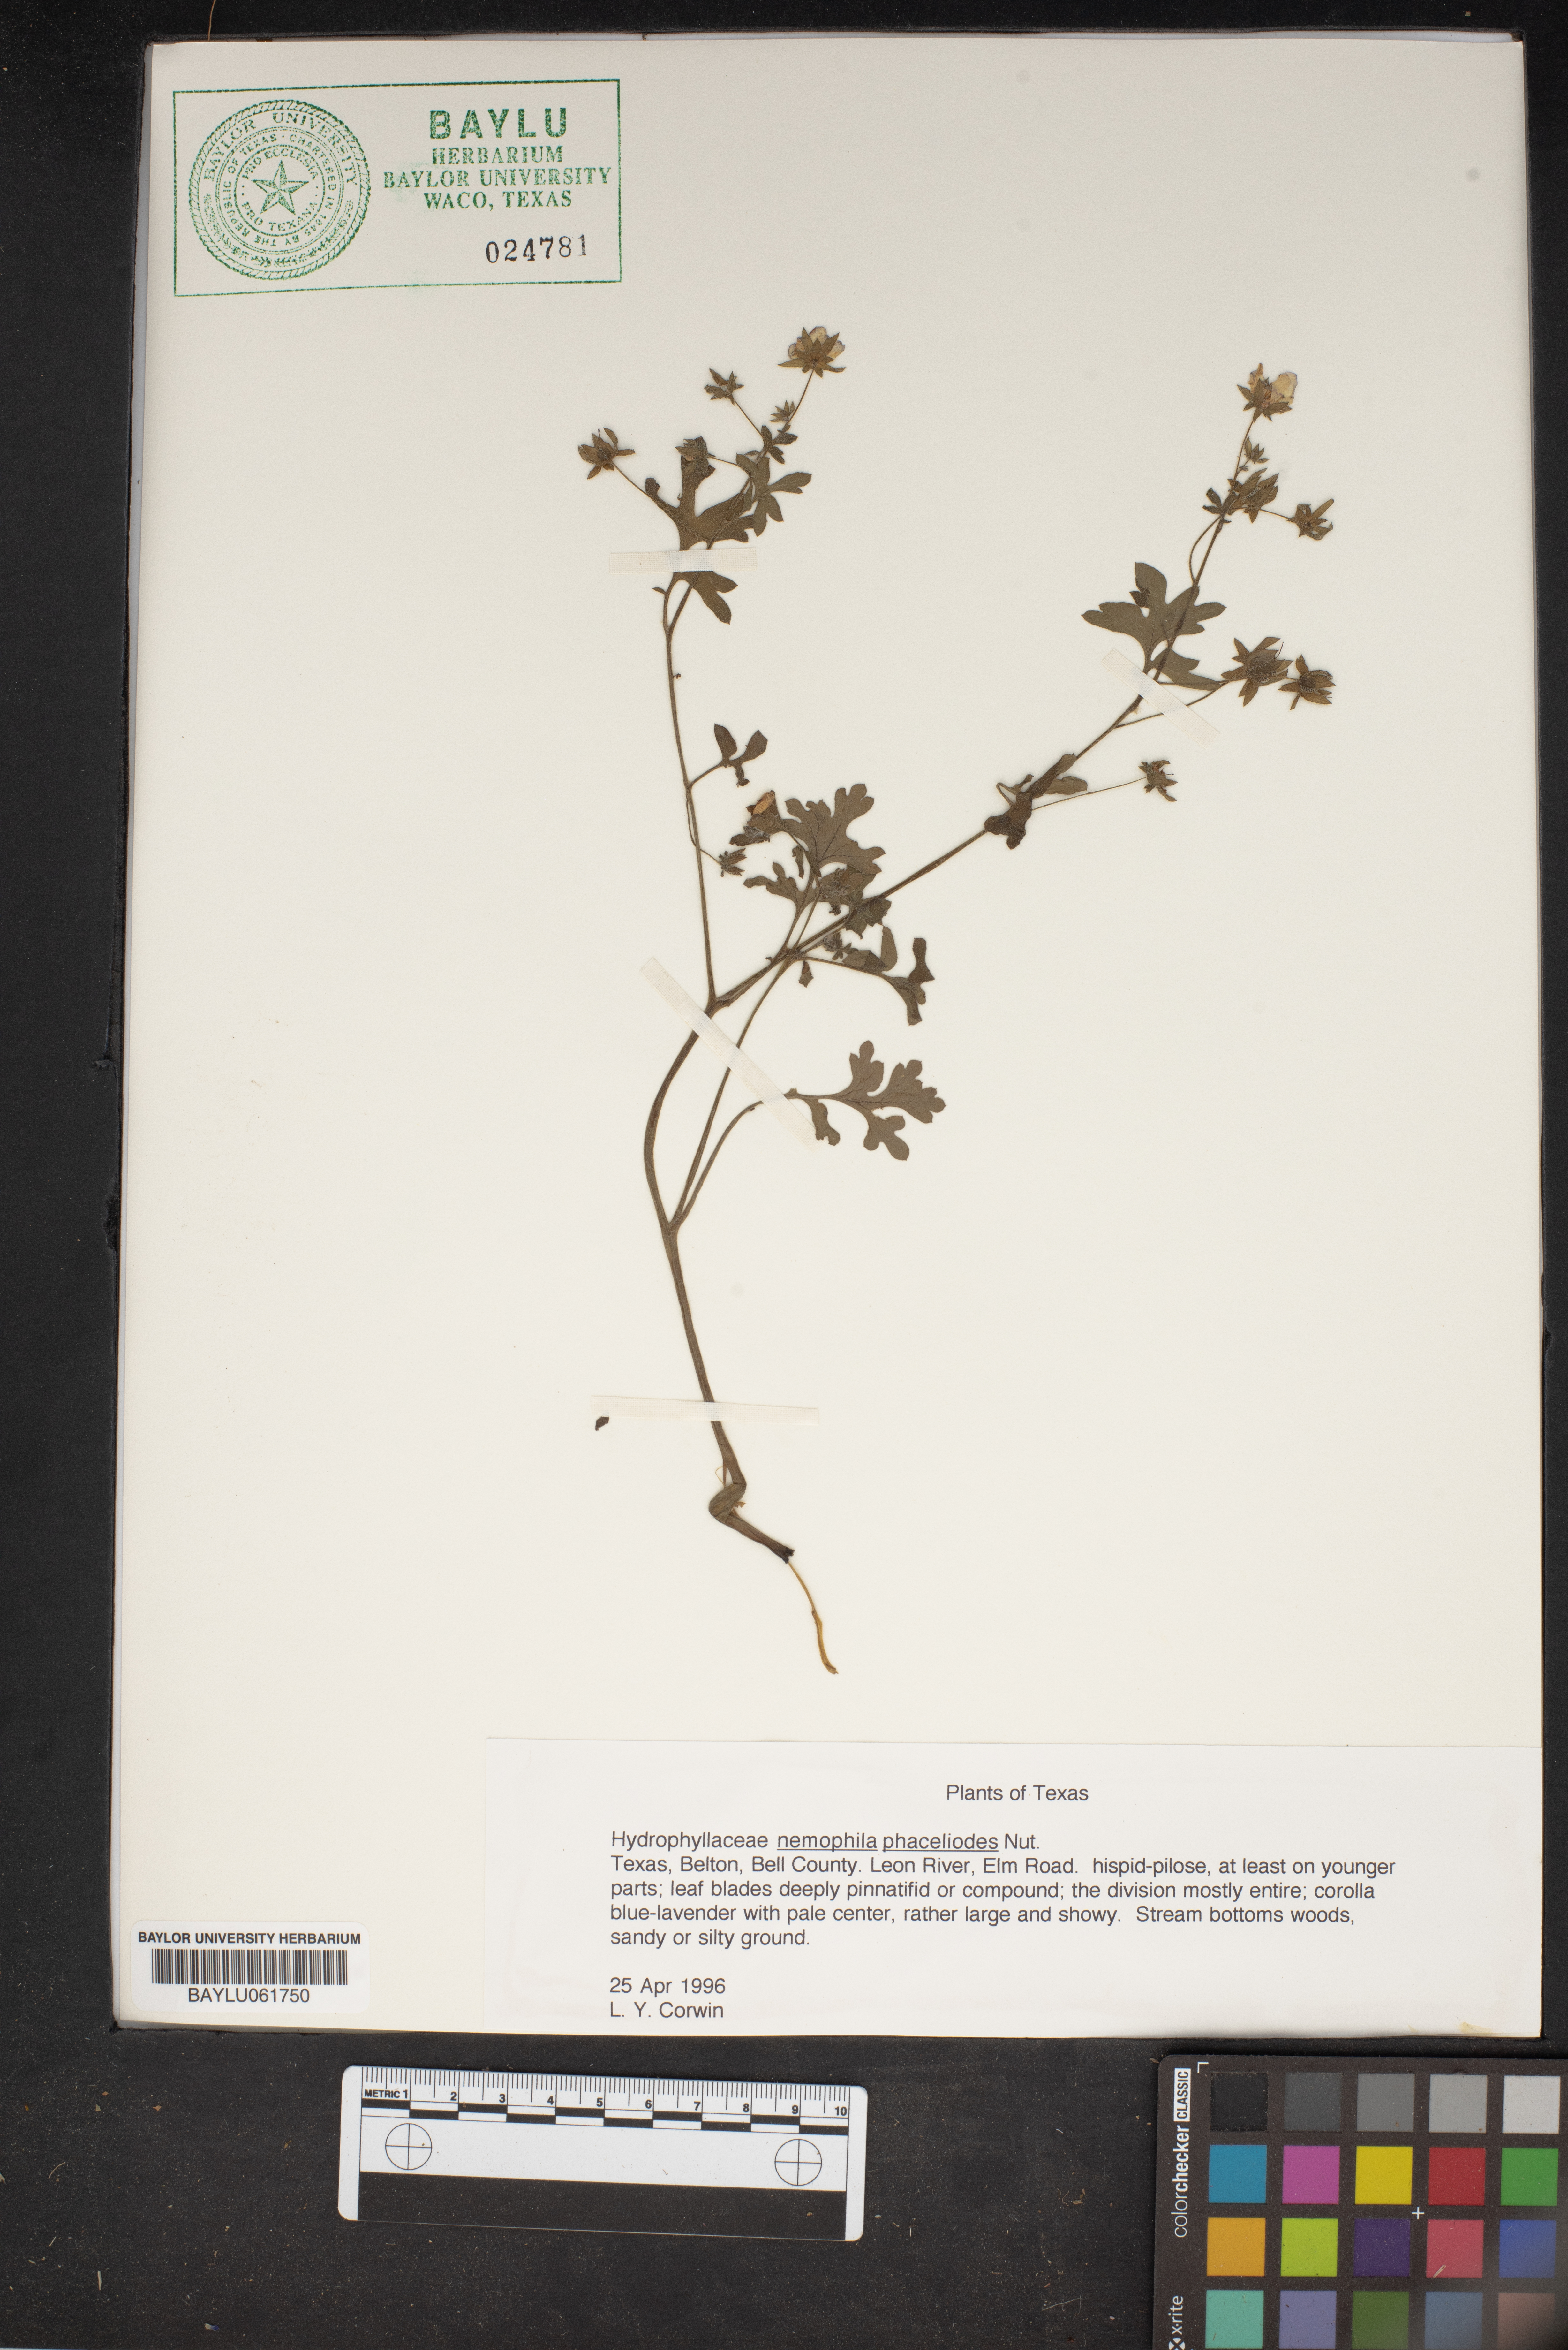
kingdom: Plantae
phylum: Tracheophyta
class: Magnoliopsida
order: Boraginales
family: Hydrophyllaceae
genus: Nemophila
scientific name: Nemophila phacelioides
